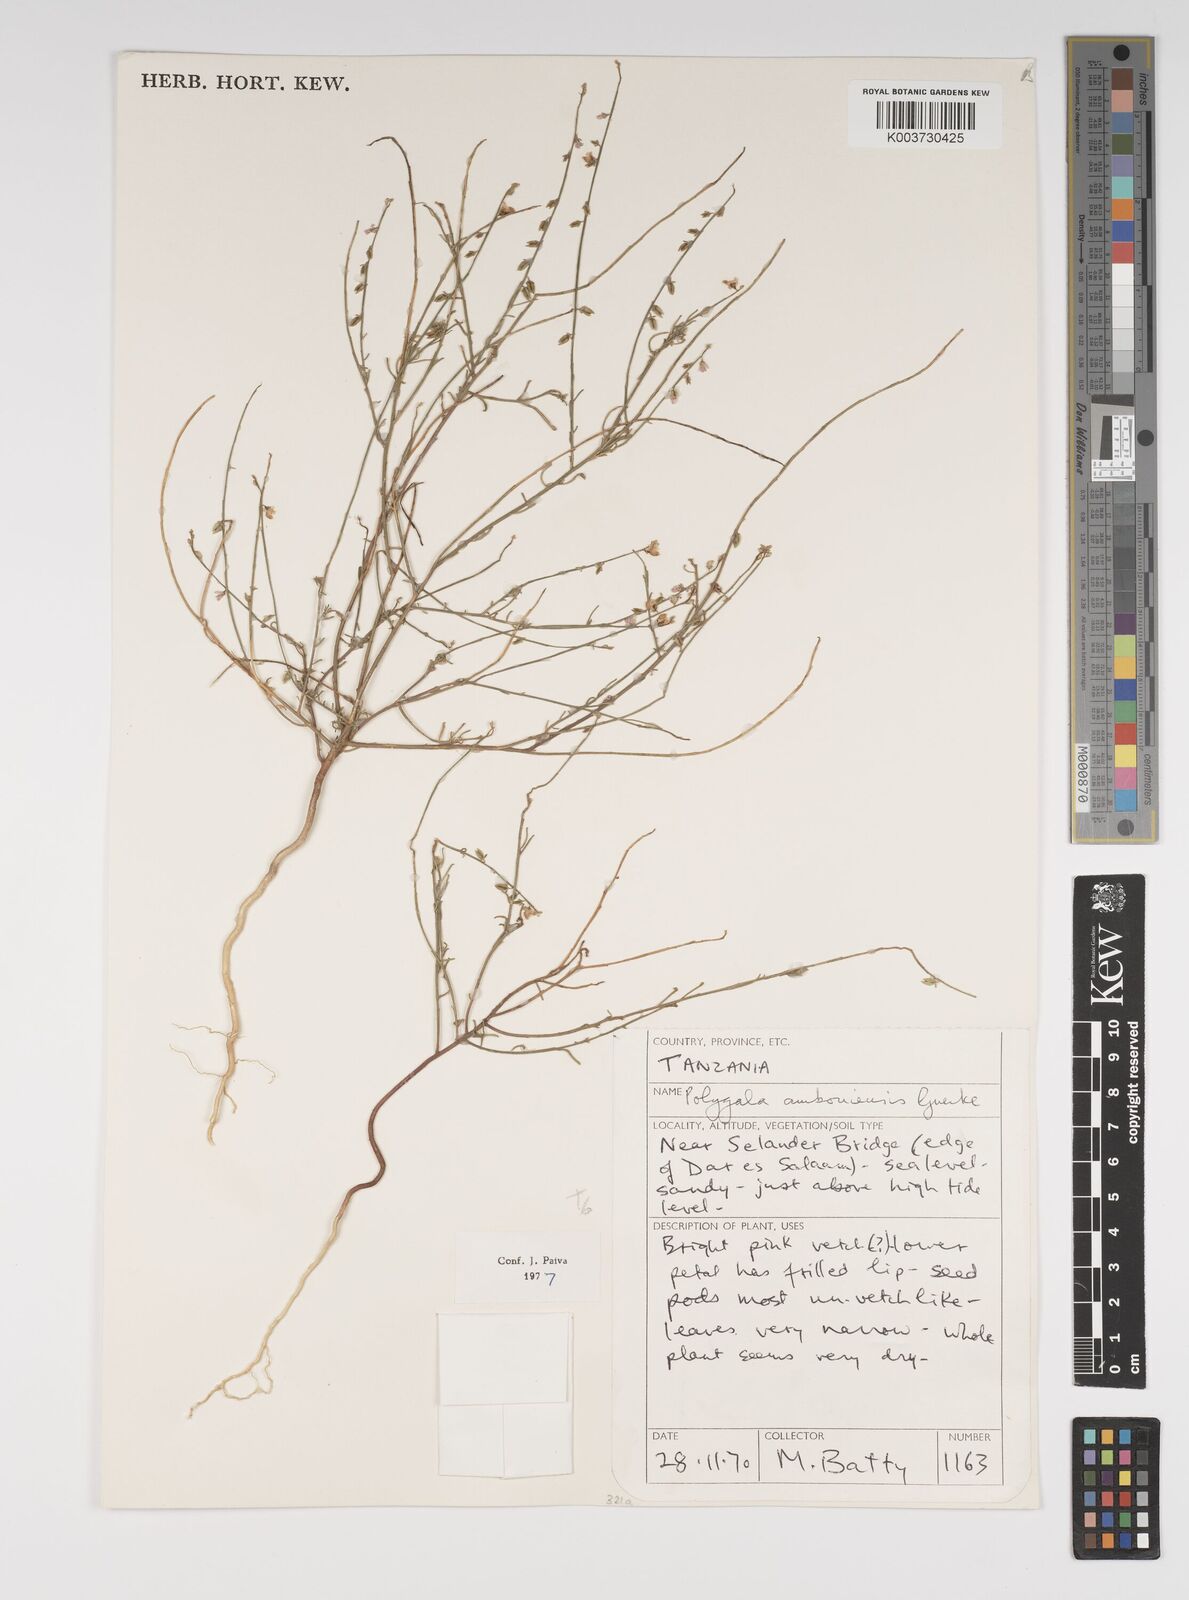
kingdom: Plantae
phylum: Tracheophyta
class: Magnoliopsida
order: Fabales
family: Polygalaceae
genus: Polygala
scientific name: Polygala amboniensis
